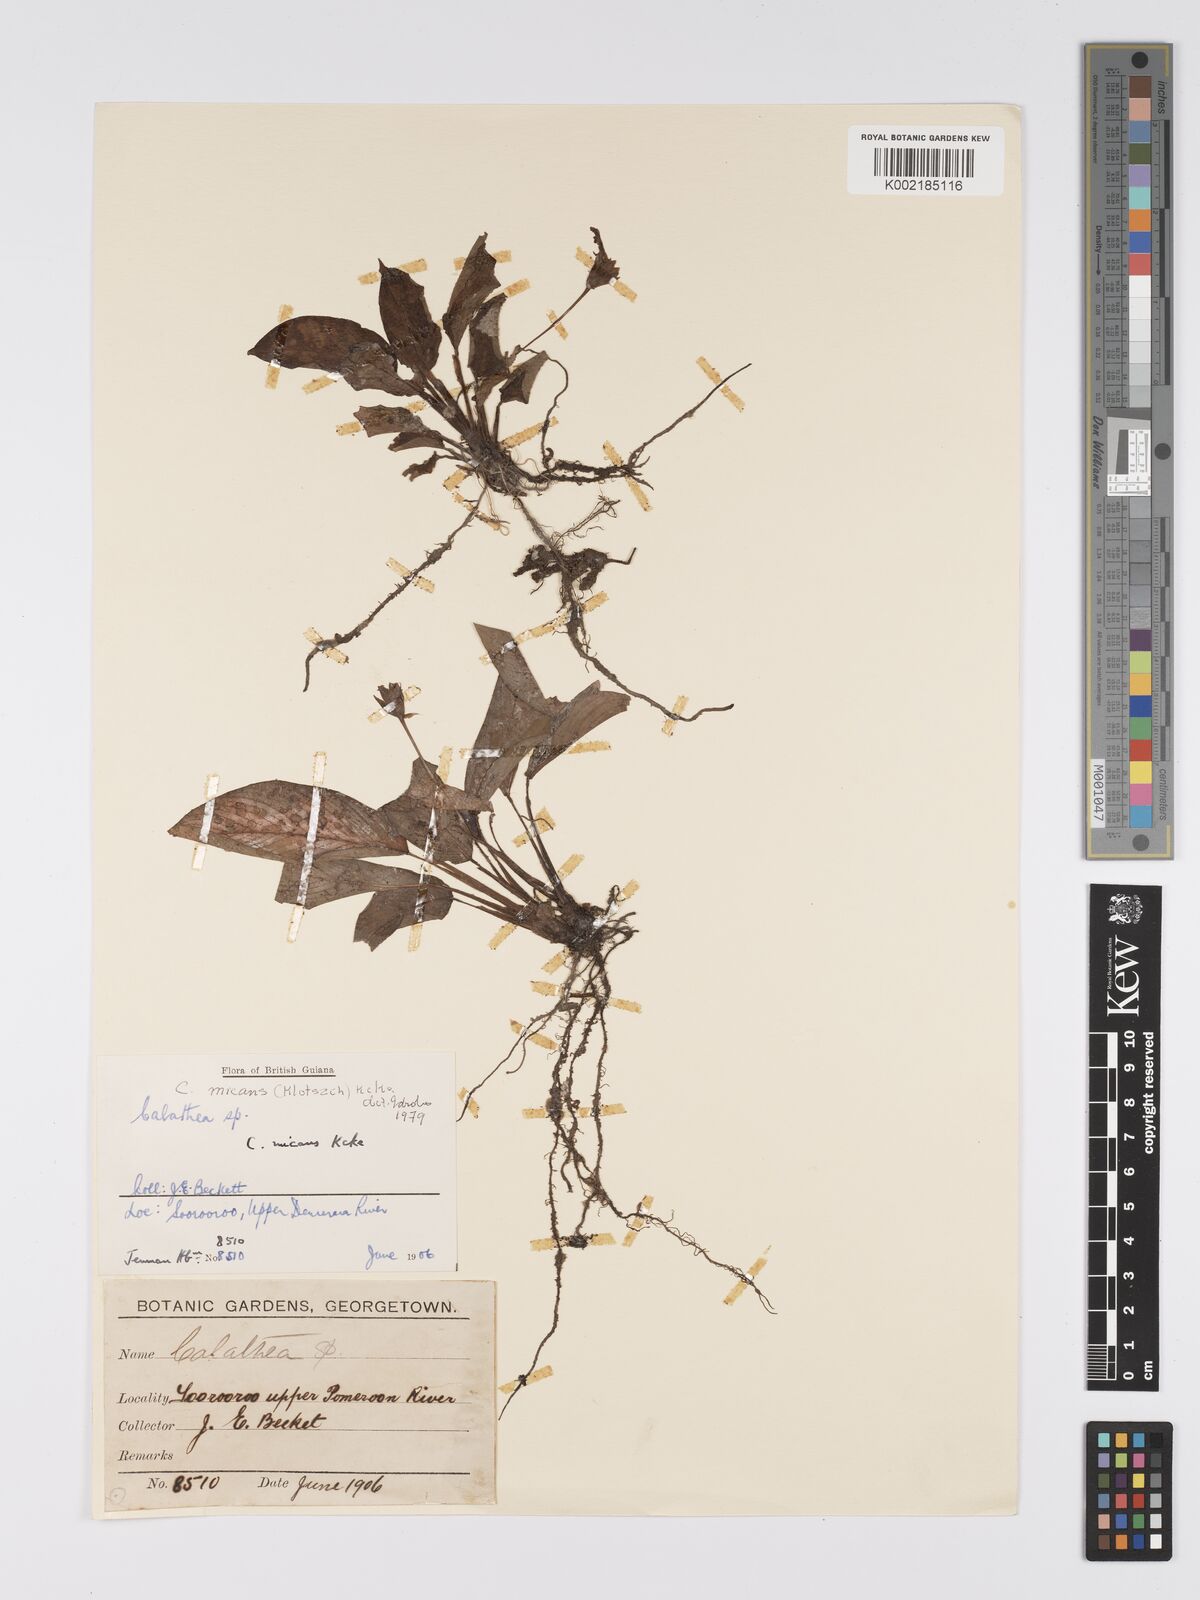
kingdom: Plantae
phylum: Tracheophyta
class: Liliopsida
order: Zingiberales
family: Marantaceae
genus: Goeppertia
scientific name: Goeppertia micans
